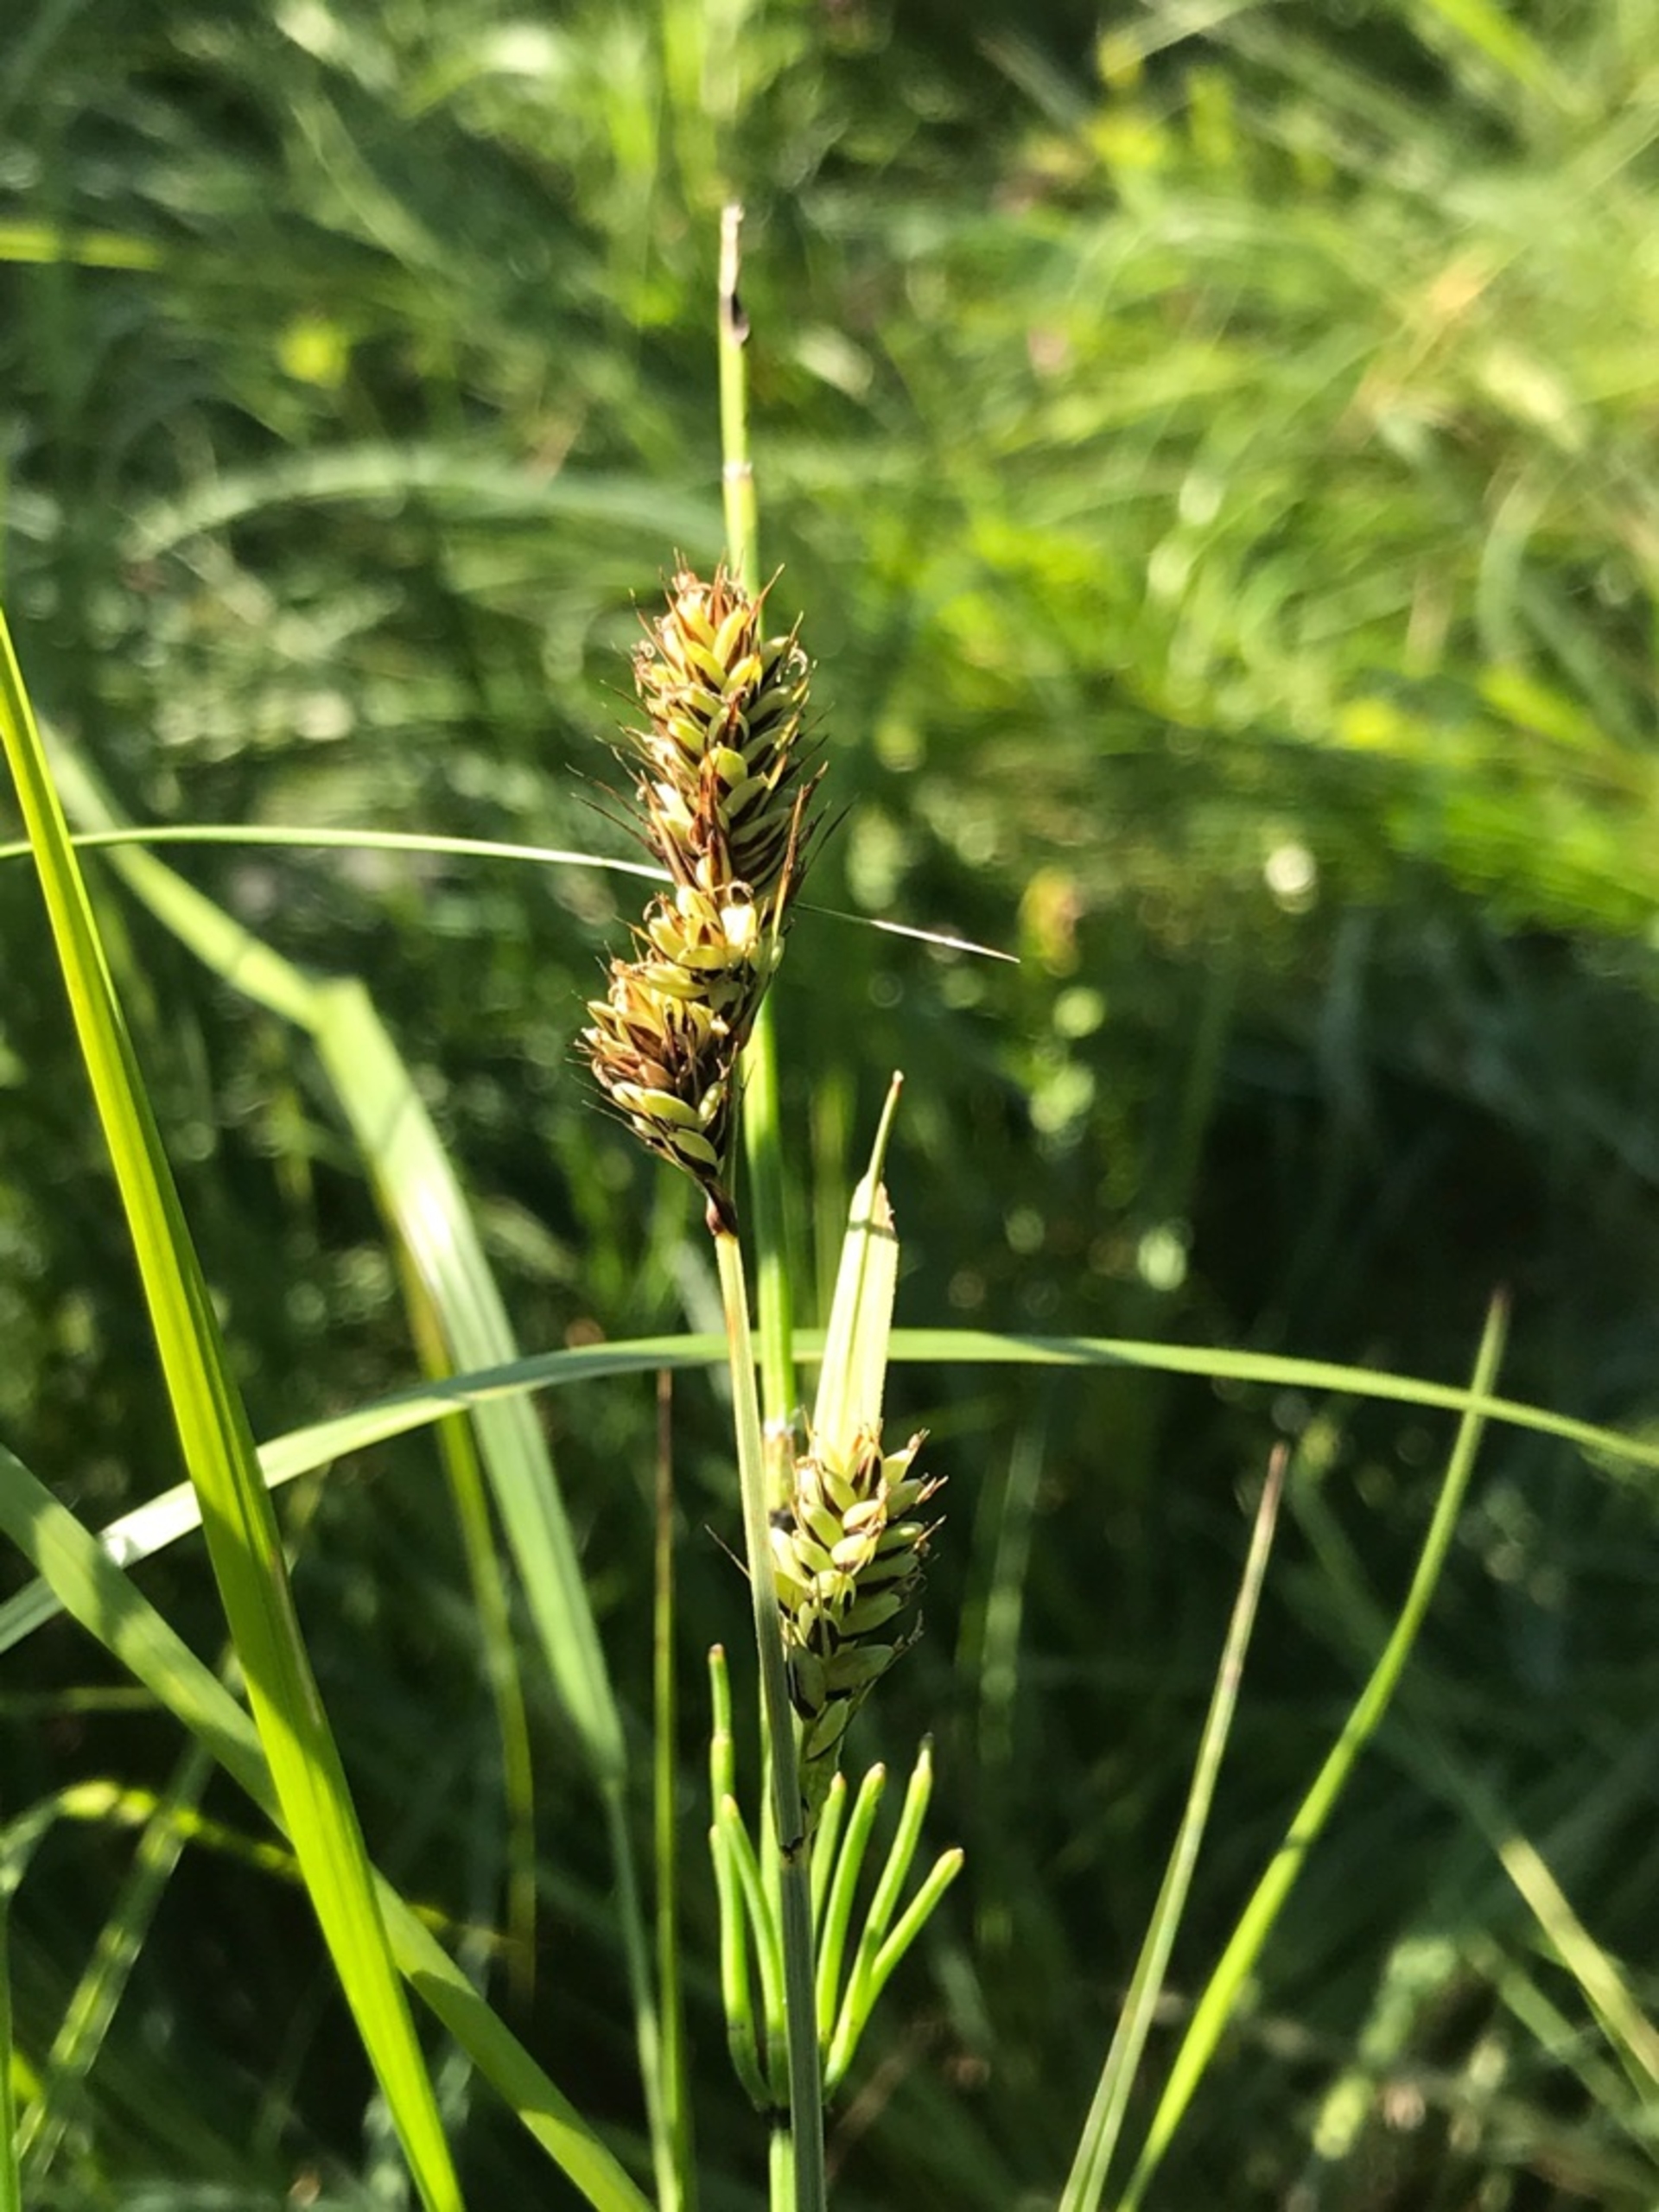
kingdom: Plantae
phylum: Tracheophyta
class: Liliopsida
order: Poales
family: Cyperaceae
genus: Carex
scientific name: Carex buxbaumii
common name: Kølle-star
